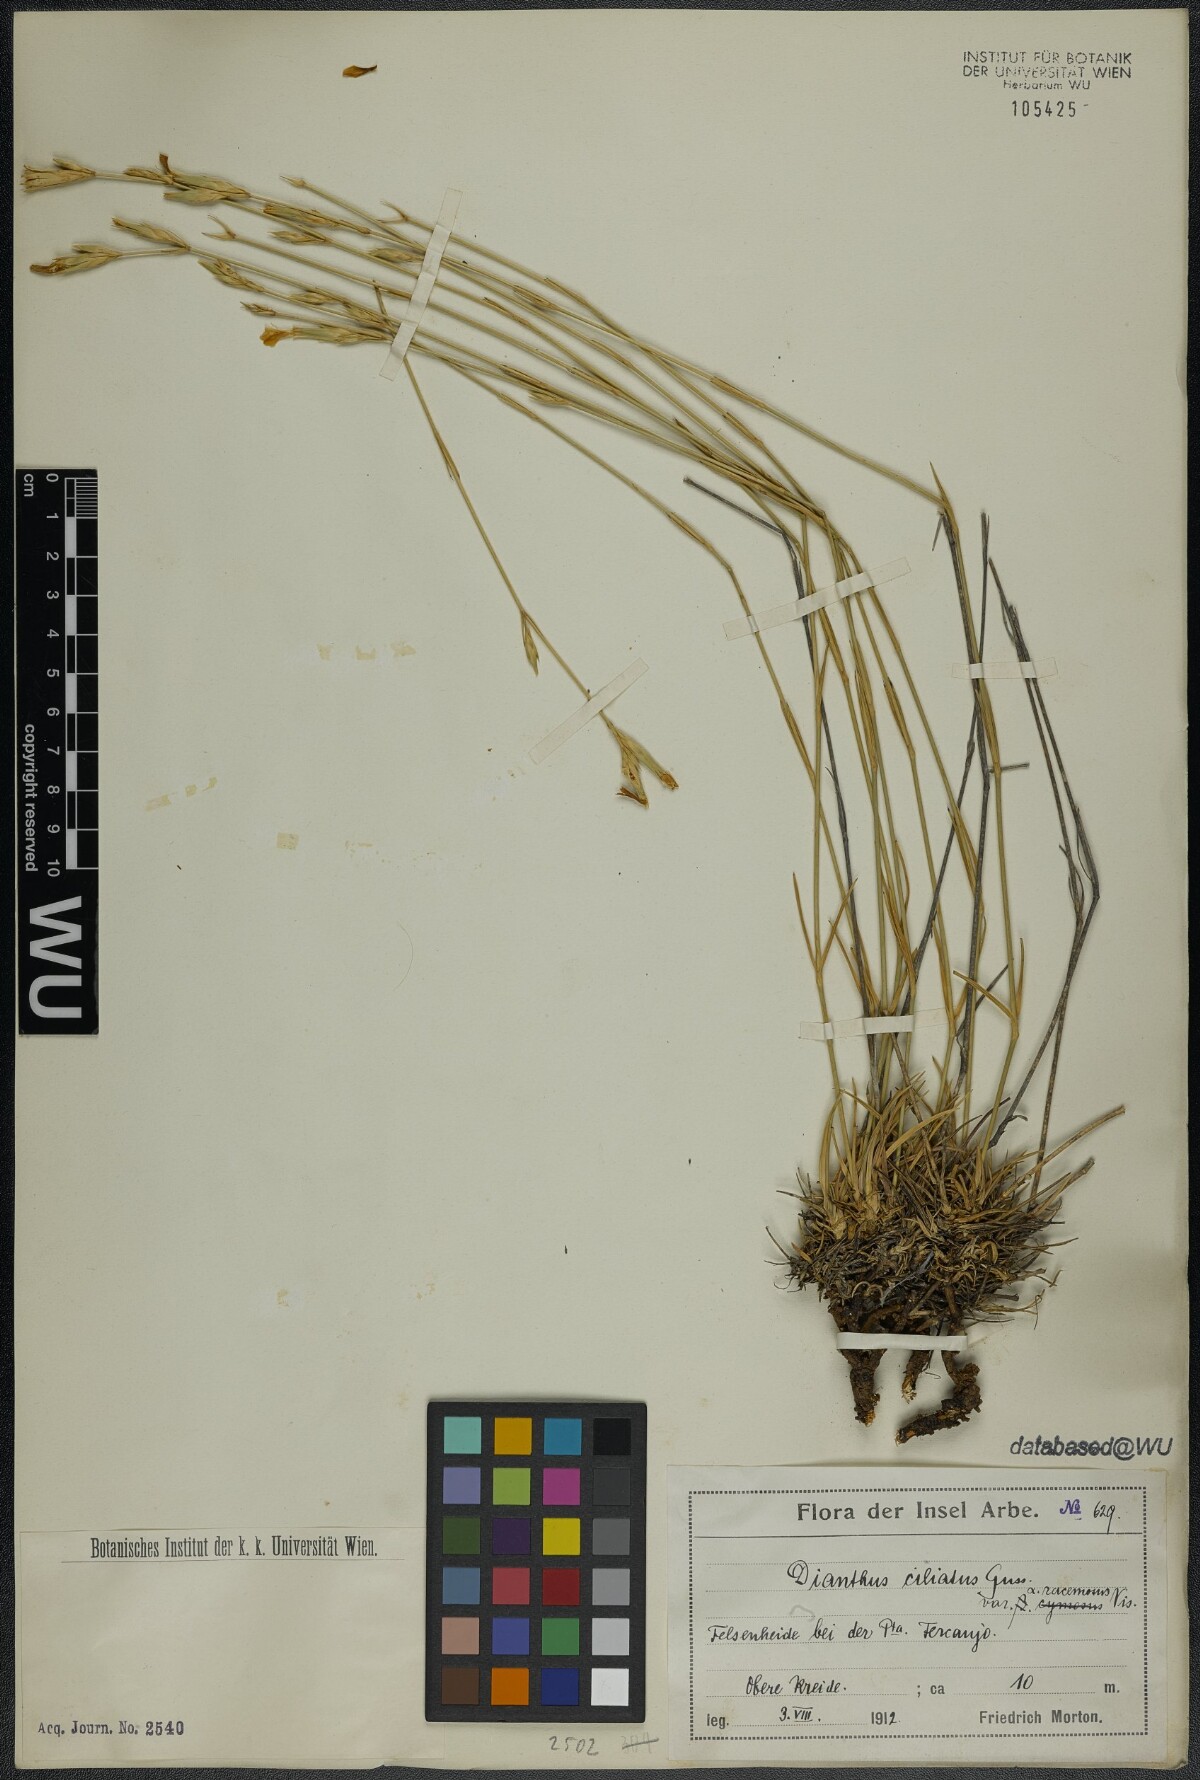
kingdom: Plantae
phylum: Tracheophyta
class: Magnoliopsida
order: Caryophyllales
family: Caryophyllaceae
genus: Dianthus
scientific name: Dianthus ciliatus
